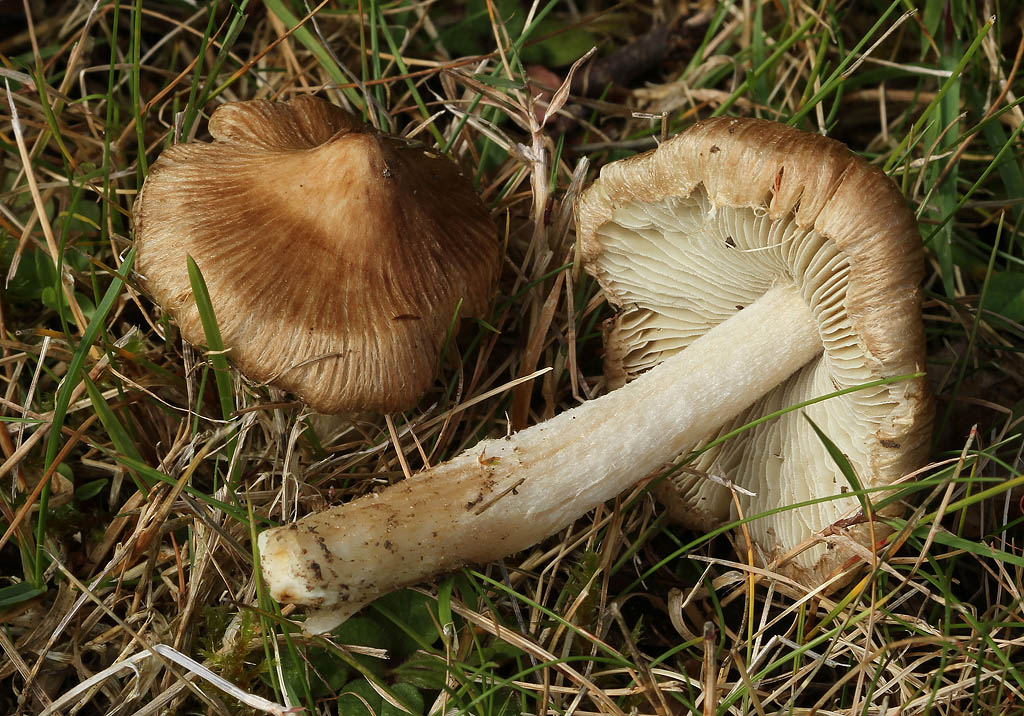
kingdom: Fungi
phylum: Basidiomycota
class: Agaricomycetes
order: Agaricales
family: Inocybaceae
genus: Pseudosperma
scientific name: Pseudosperma
